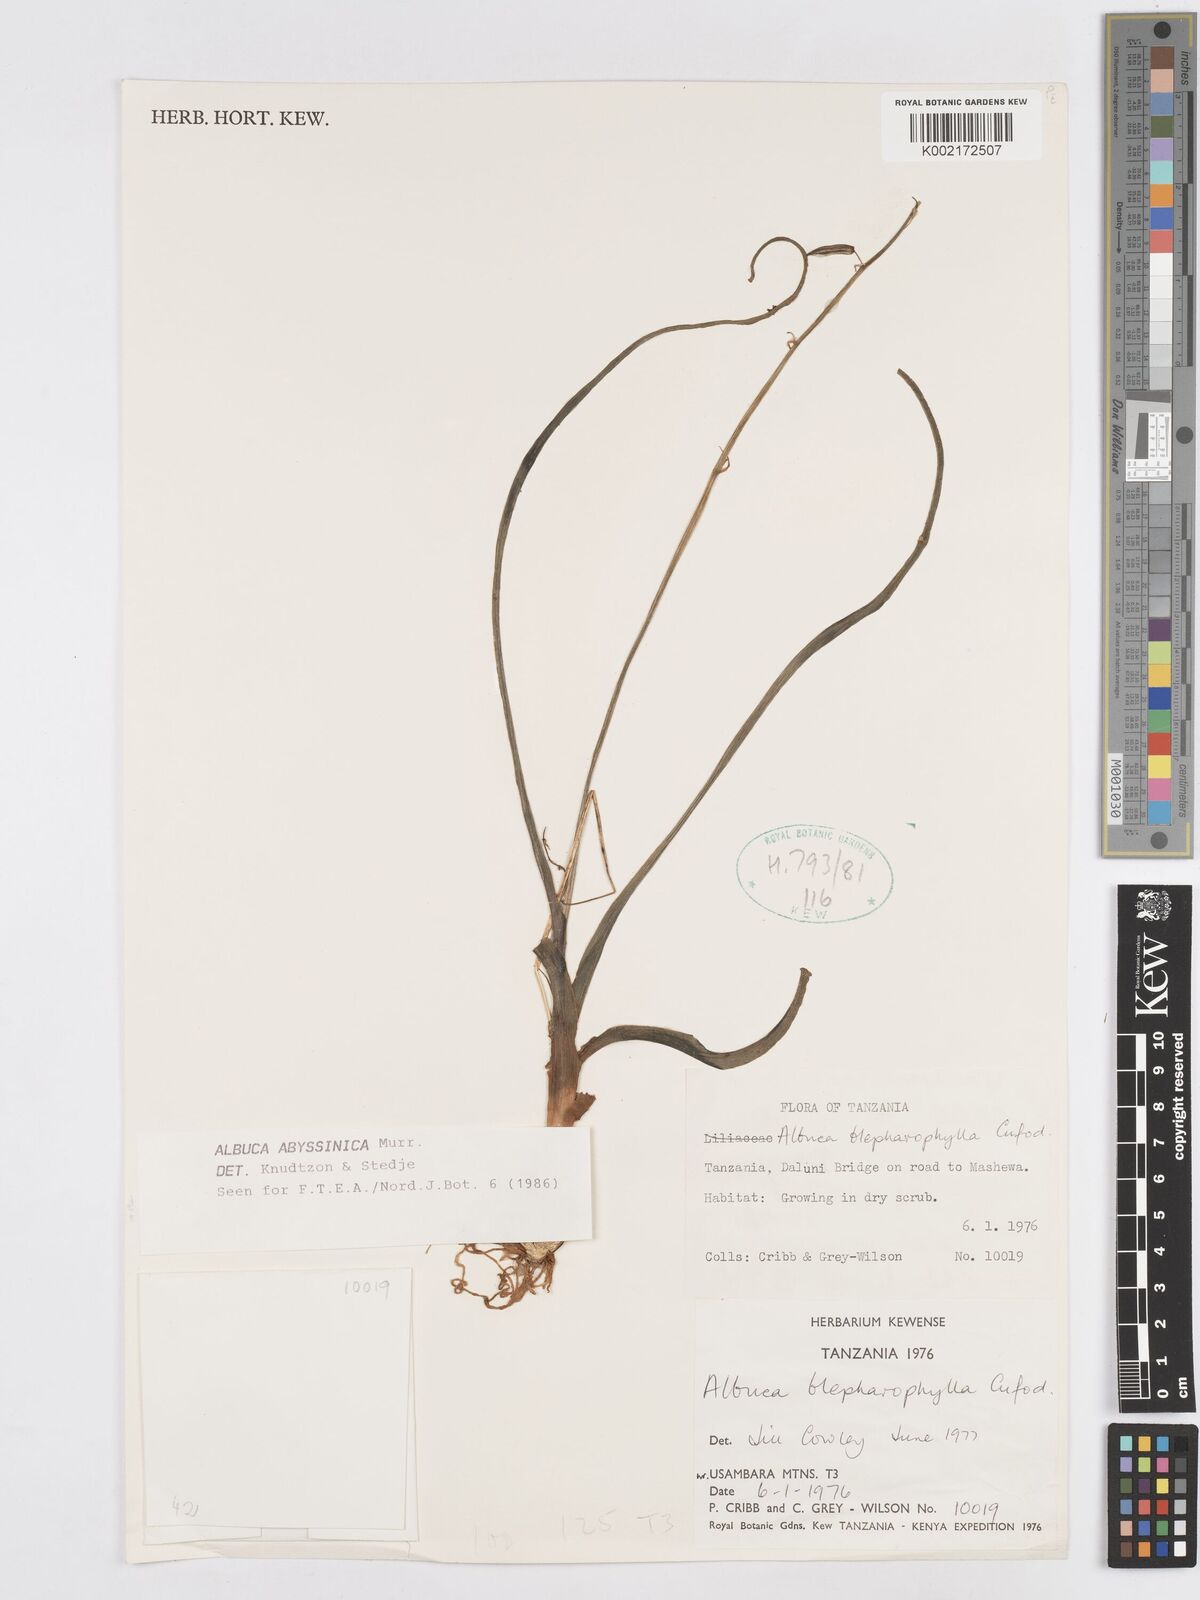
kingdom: Plantae
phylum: Tracheophyta
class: Liliopsida
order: Asparagales
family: Asparagaceae
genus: Albuca
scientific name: Albuca abyssinica
